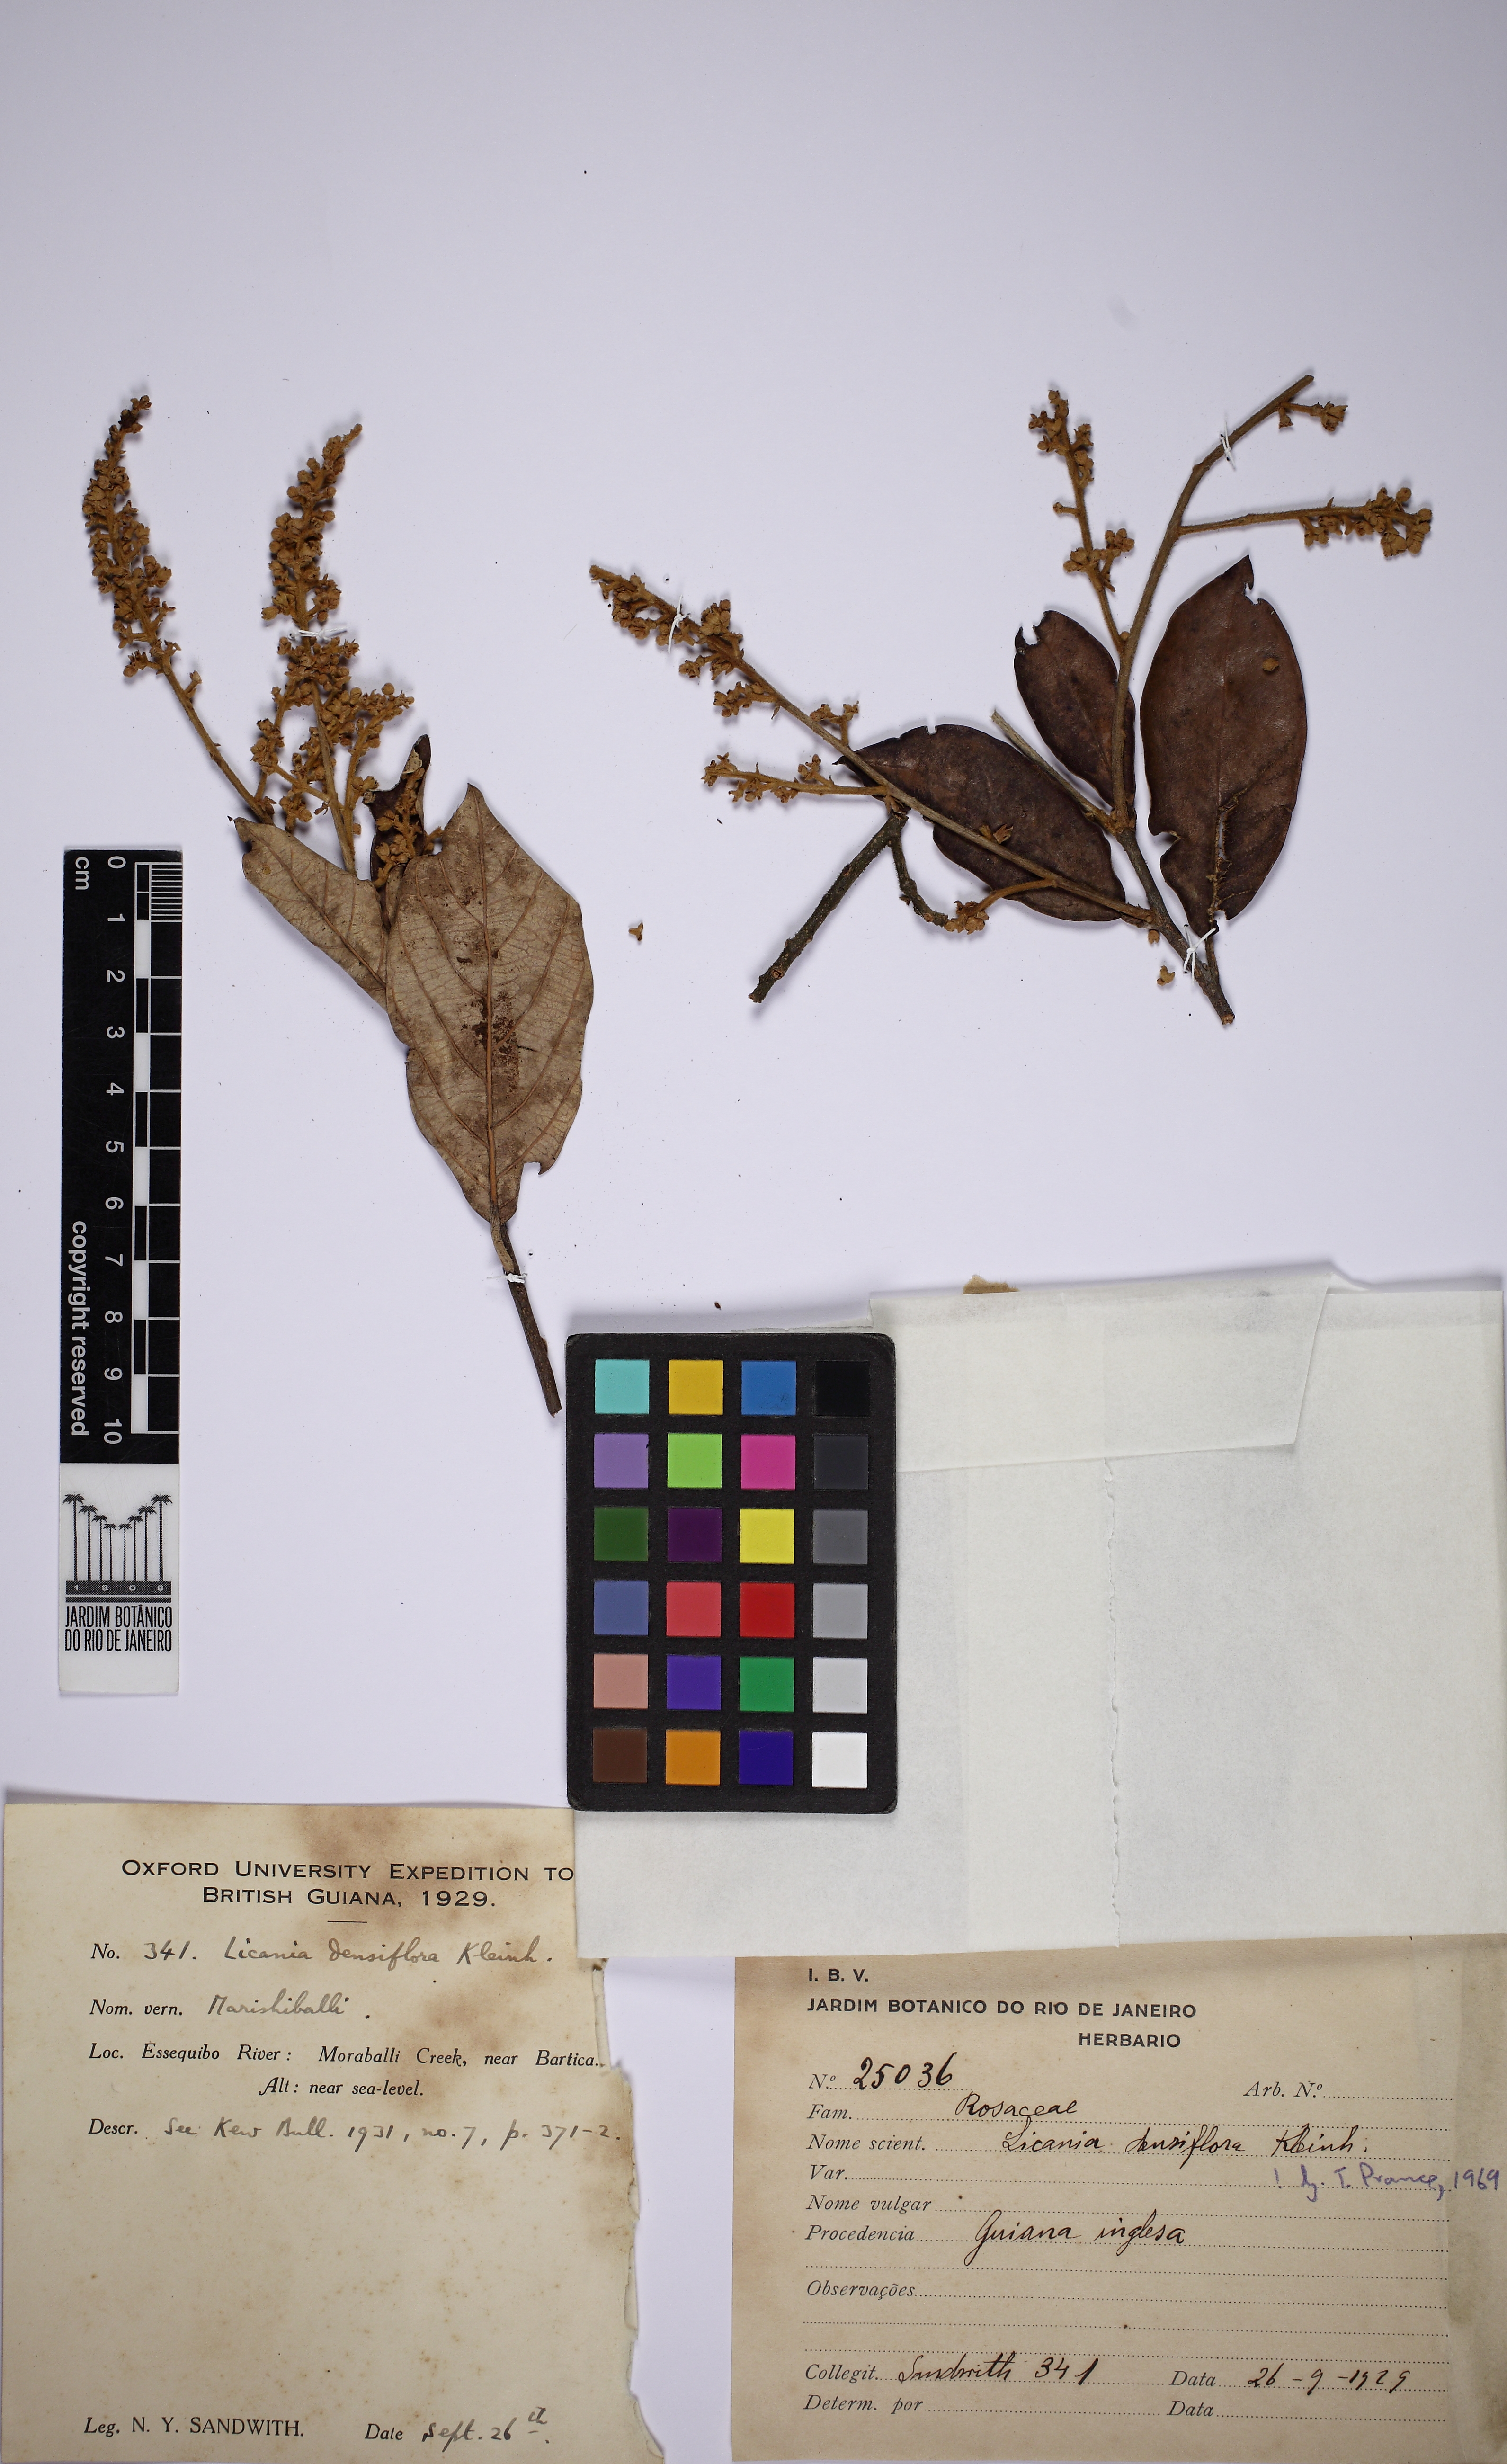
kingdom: Plantae
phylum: Tracheophyta
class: Magnoliopsida
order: Malpighiales
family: Chrysobalanaceae
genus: Licania
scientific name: Licania densiflora
